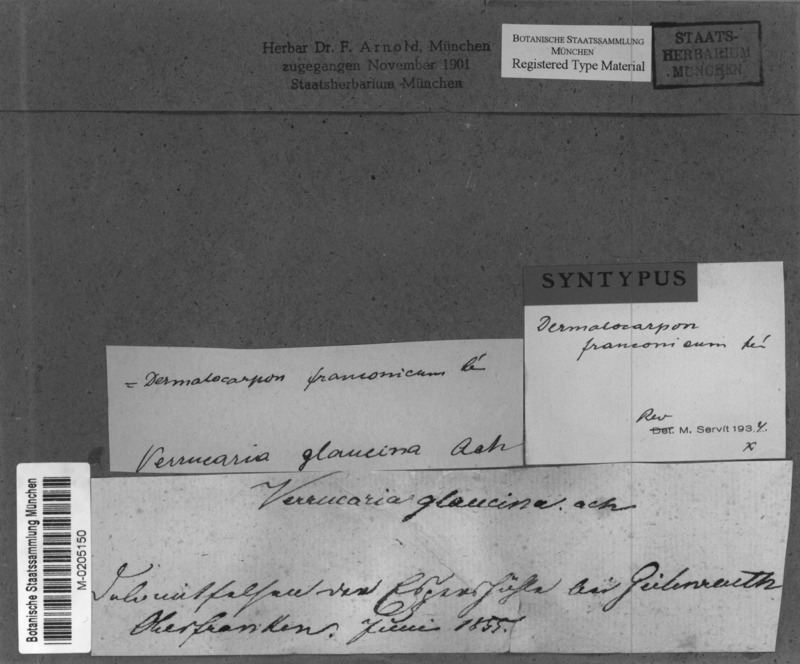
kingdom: Fungi
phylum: Ascomycota
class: Eurotiomycetes
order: Verrucariales
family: Verrucariaceae
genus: Dermatocarpon
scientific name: Dermatocarpon
